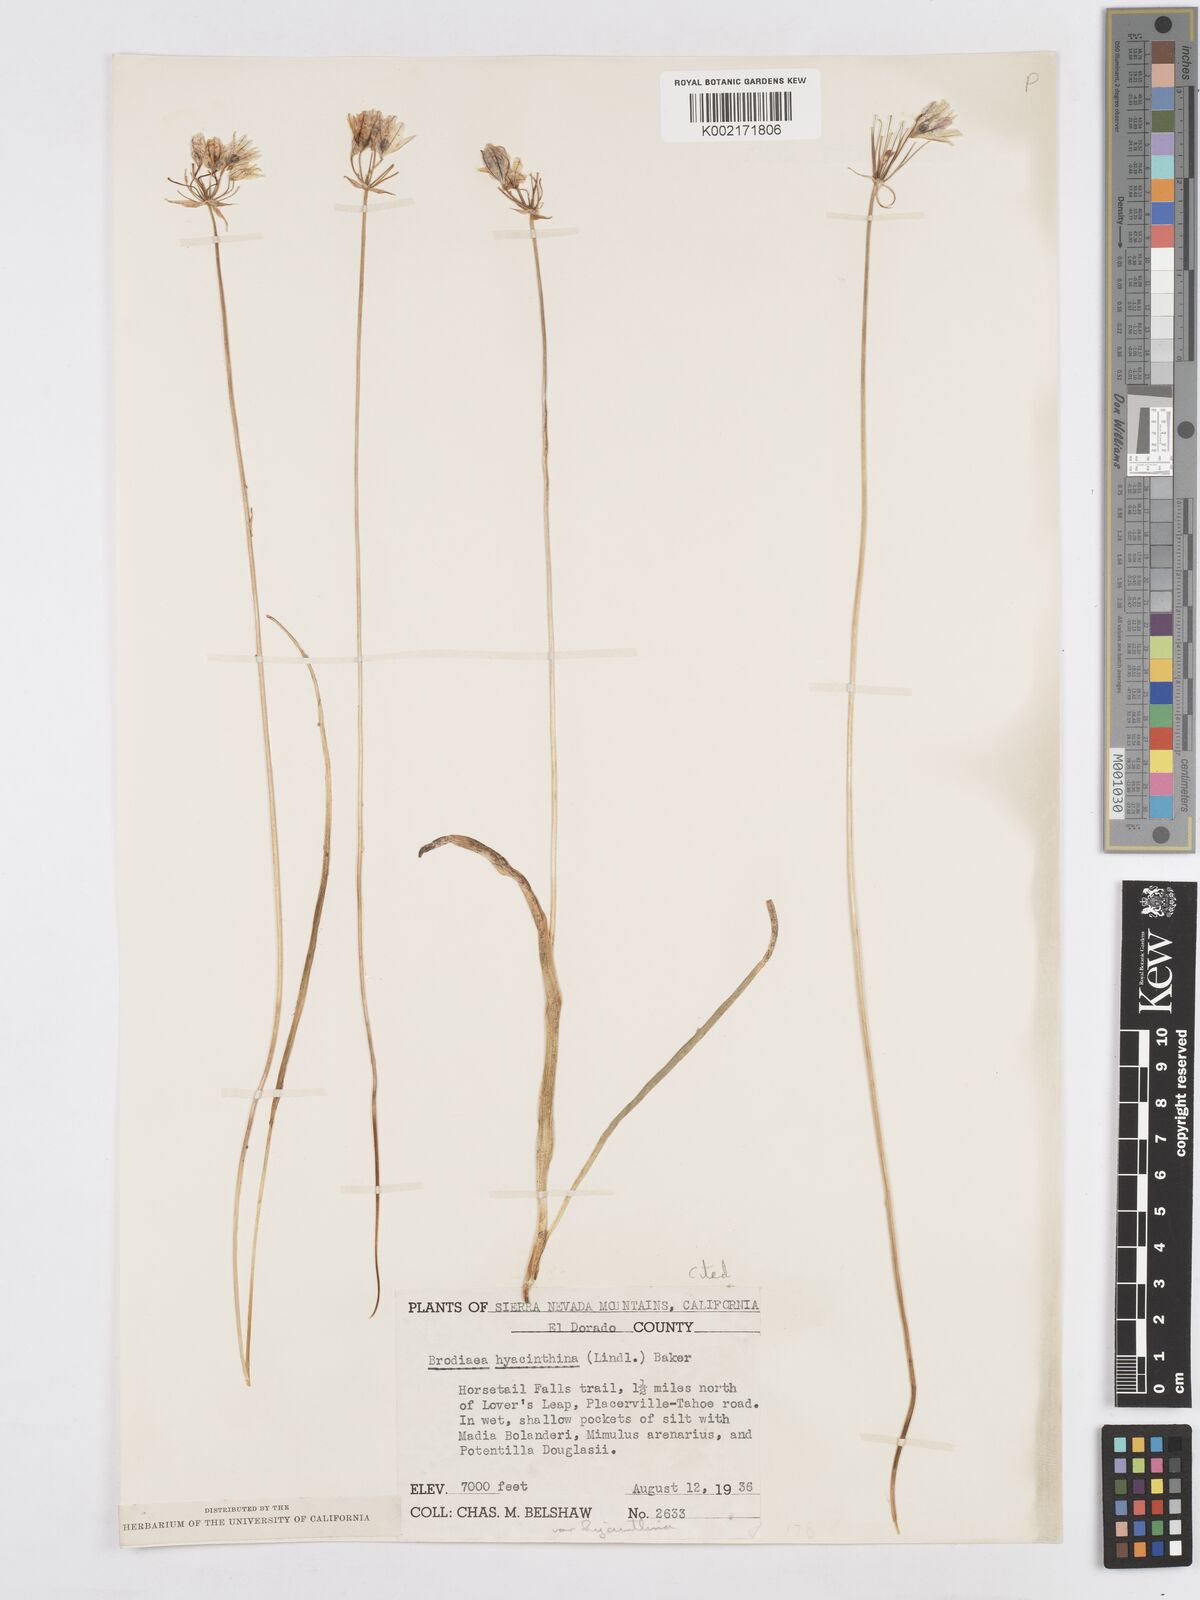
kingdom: Plantae
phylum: Tracheophyta
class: Liliopsida
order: Asparagales
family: Asparagaceae
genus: Triteleia
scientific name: Triteleia hyacinthina
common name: White brodiaea
